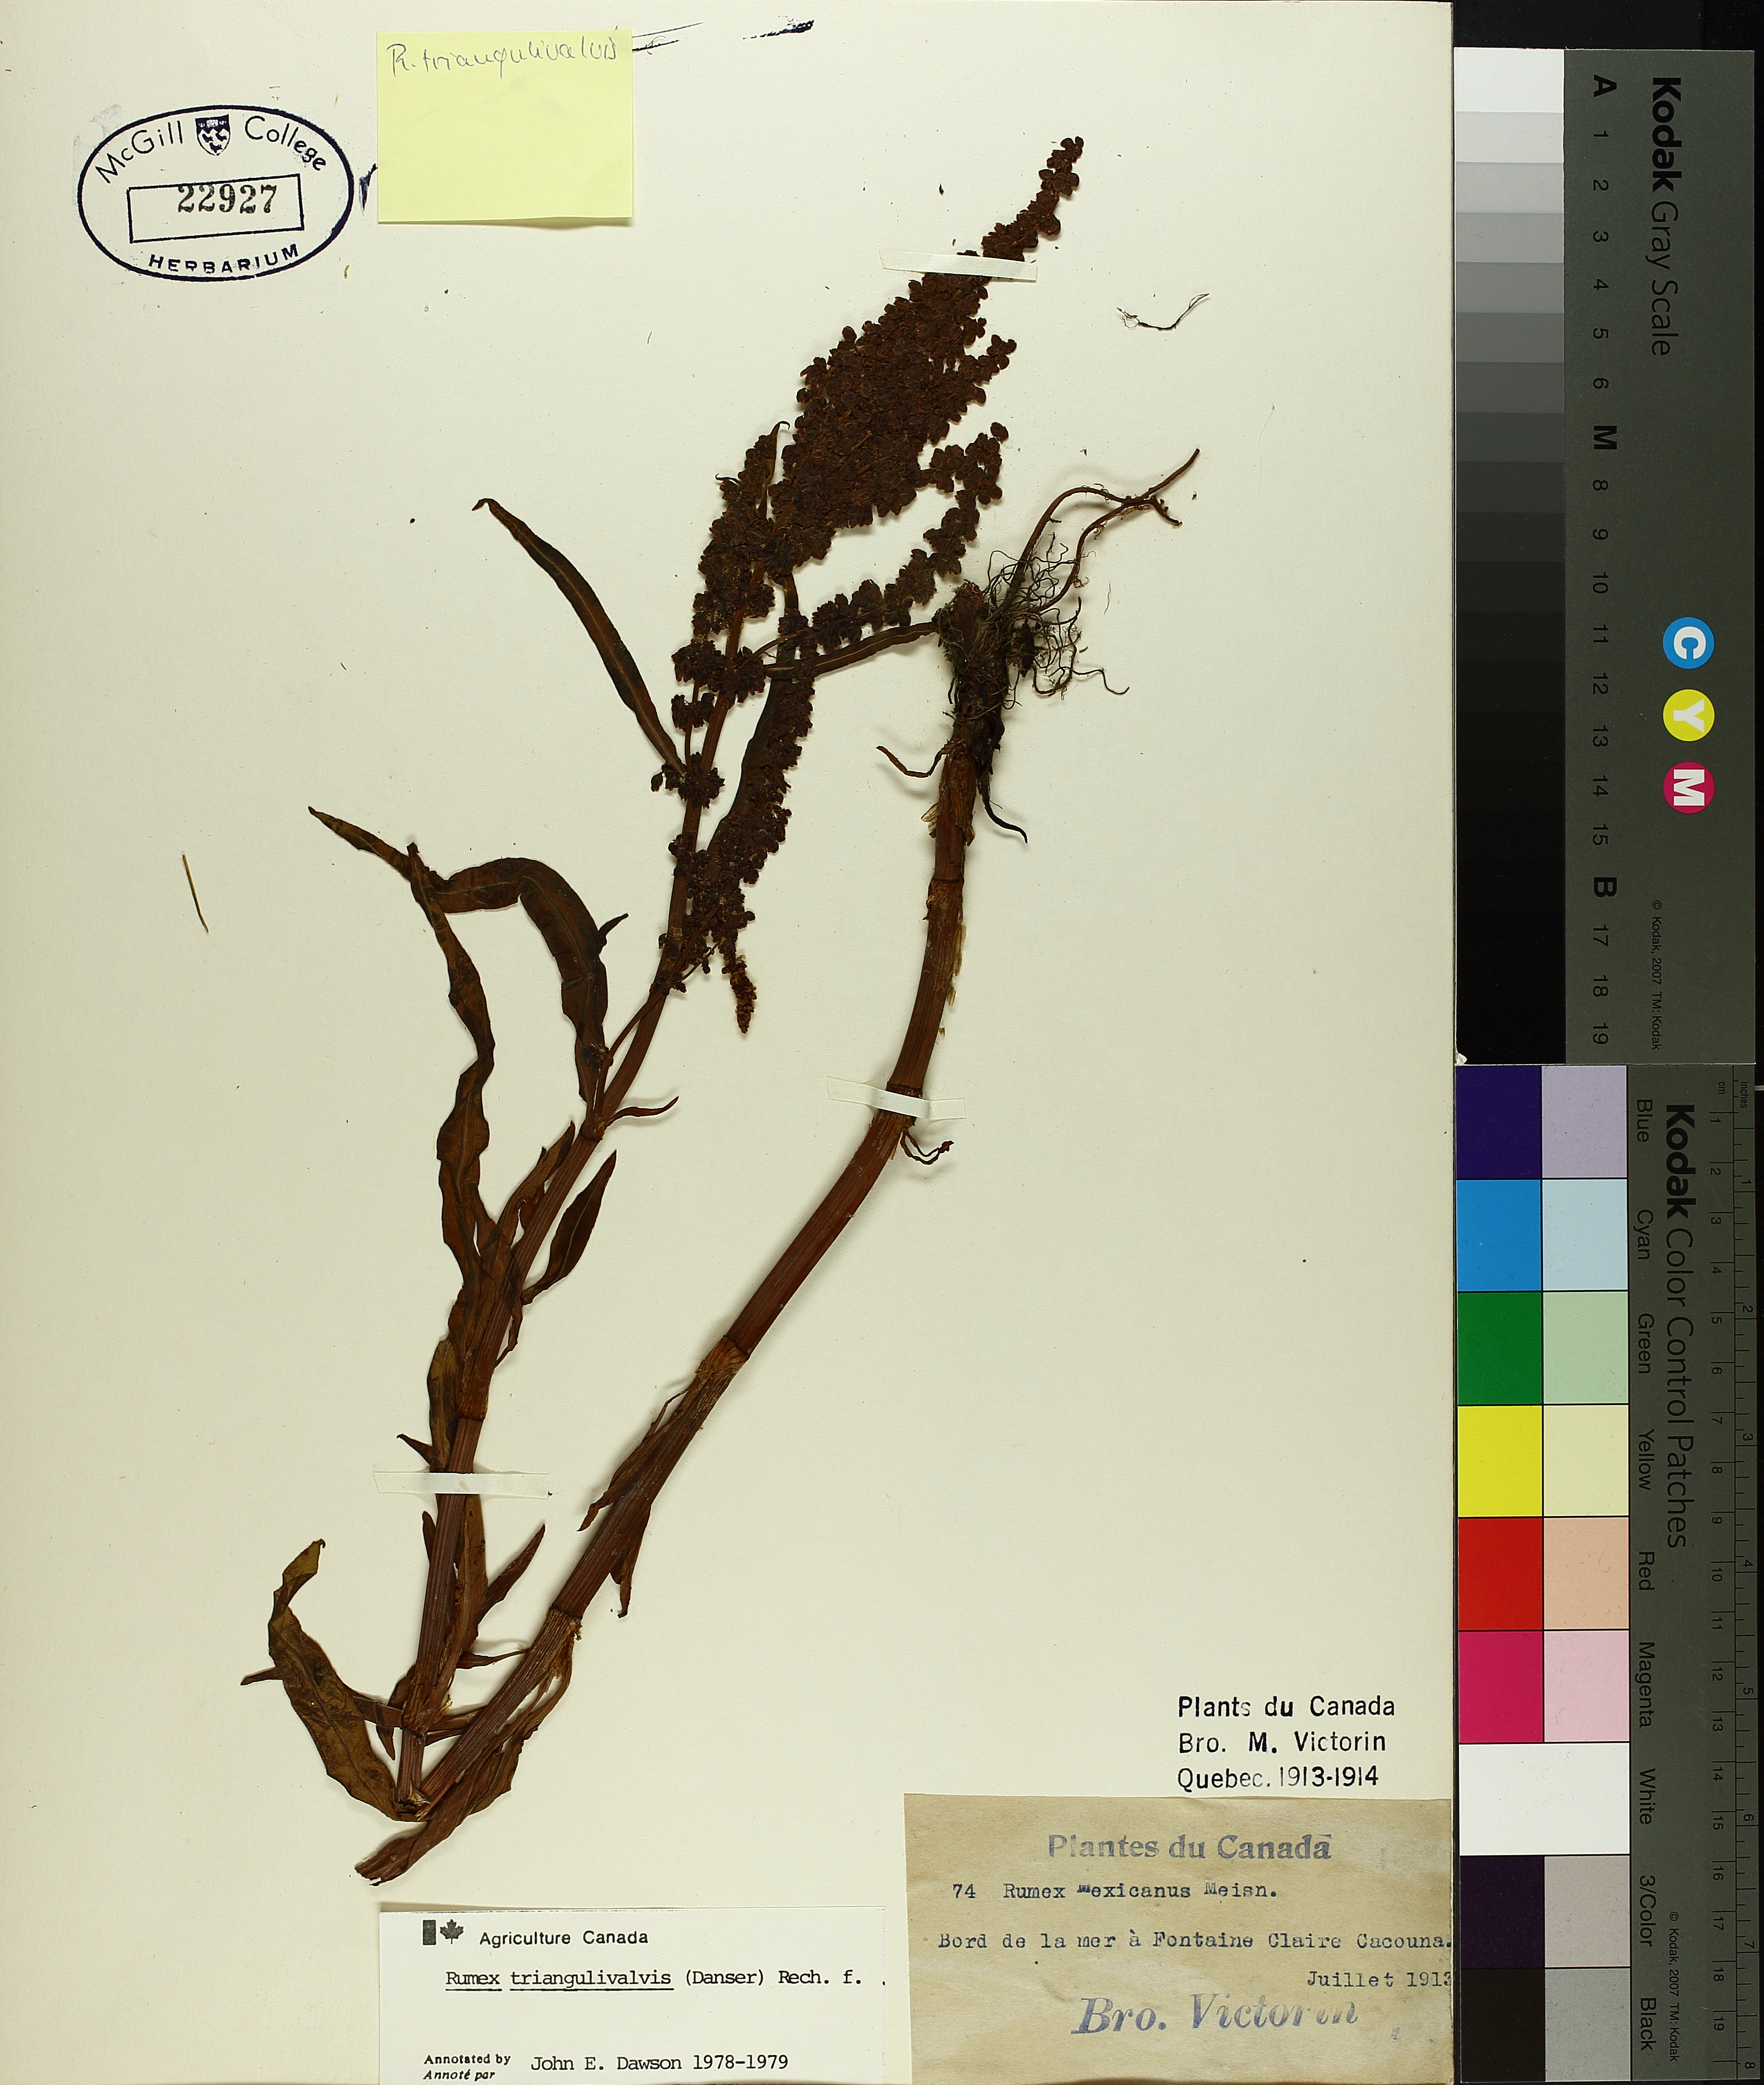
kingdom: Plantae
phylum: Tracheophyta
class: Magnoliopsida
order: Caryophyllales
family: Polygonaceae
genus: Rumex
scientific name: Rumex triangulivalvis
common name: Triangular-valve dock
